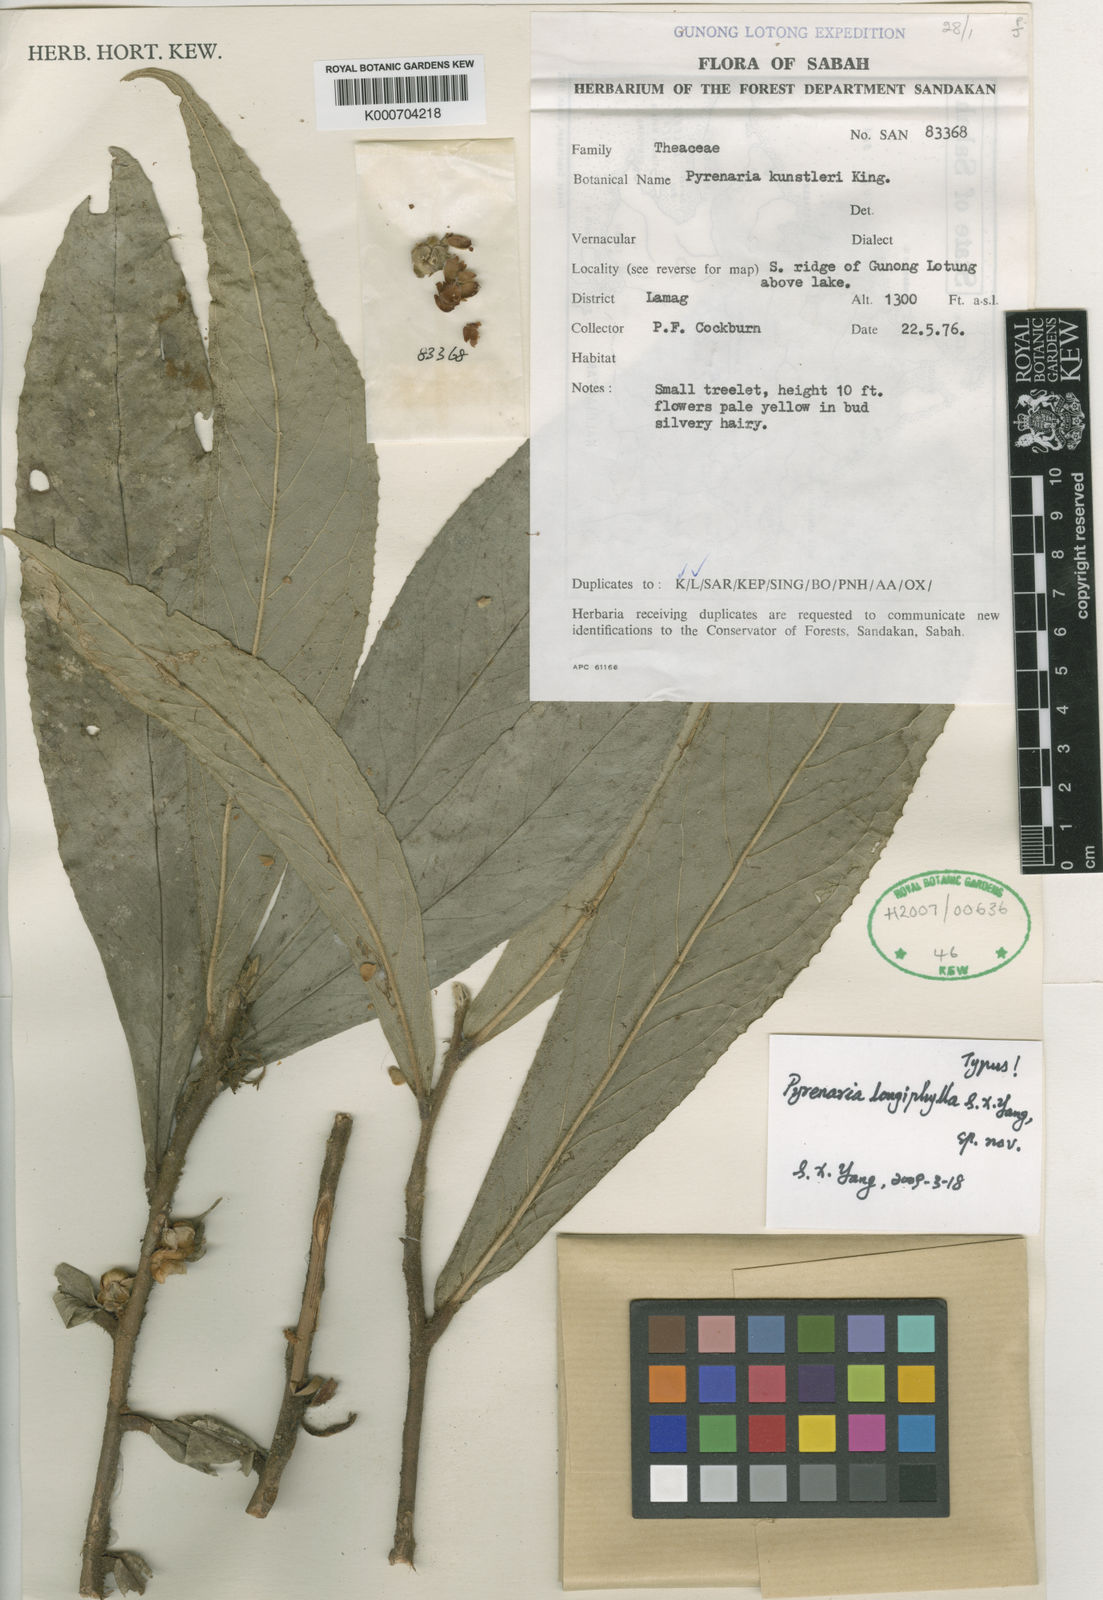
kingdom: Plantae
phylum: Tracheophyta
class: Magnoliopsida
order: Ericales
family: Theaceae
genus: Pyrenaria
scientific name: Pyrenaria
